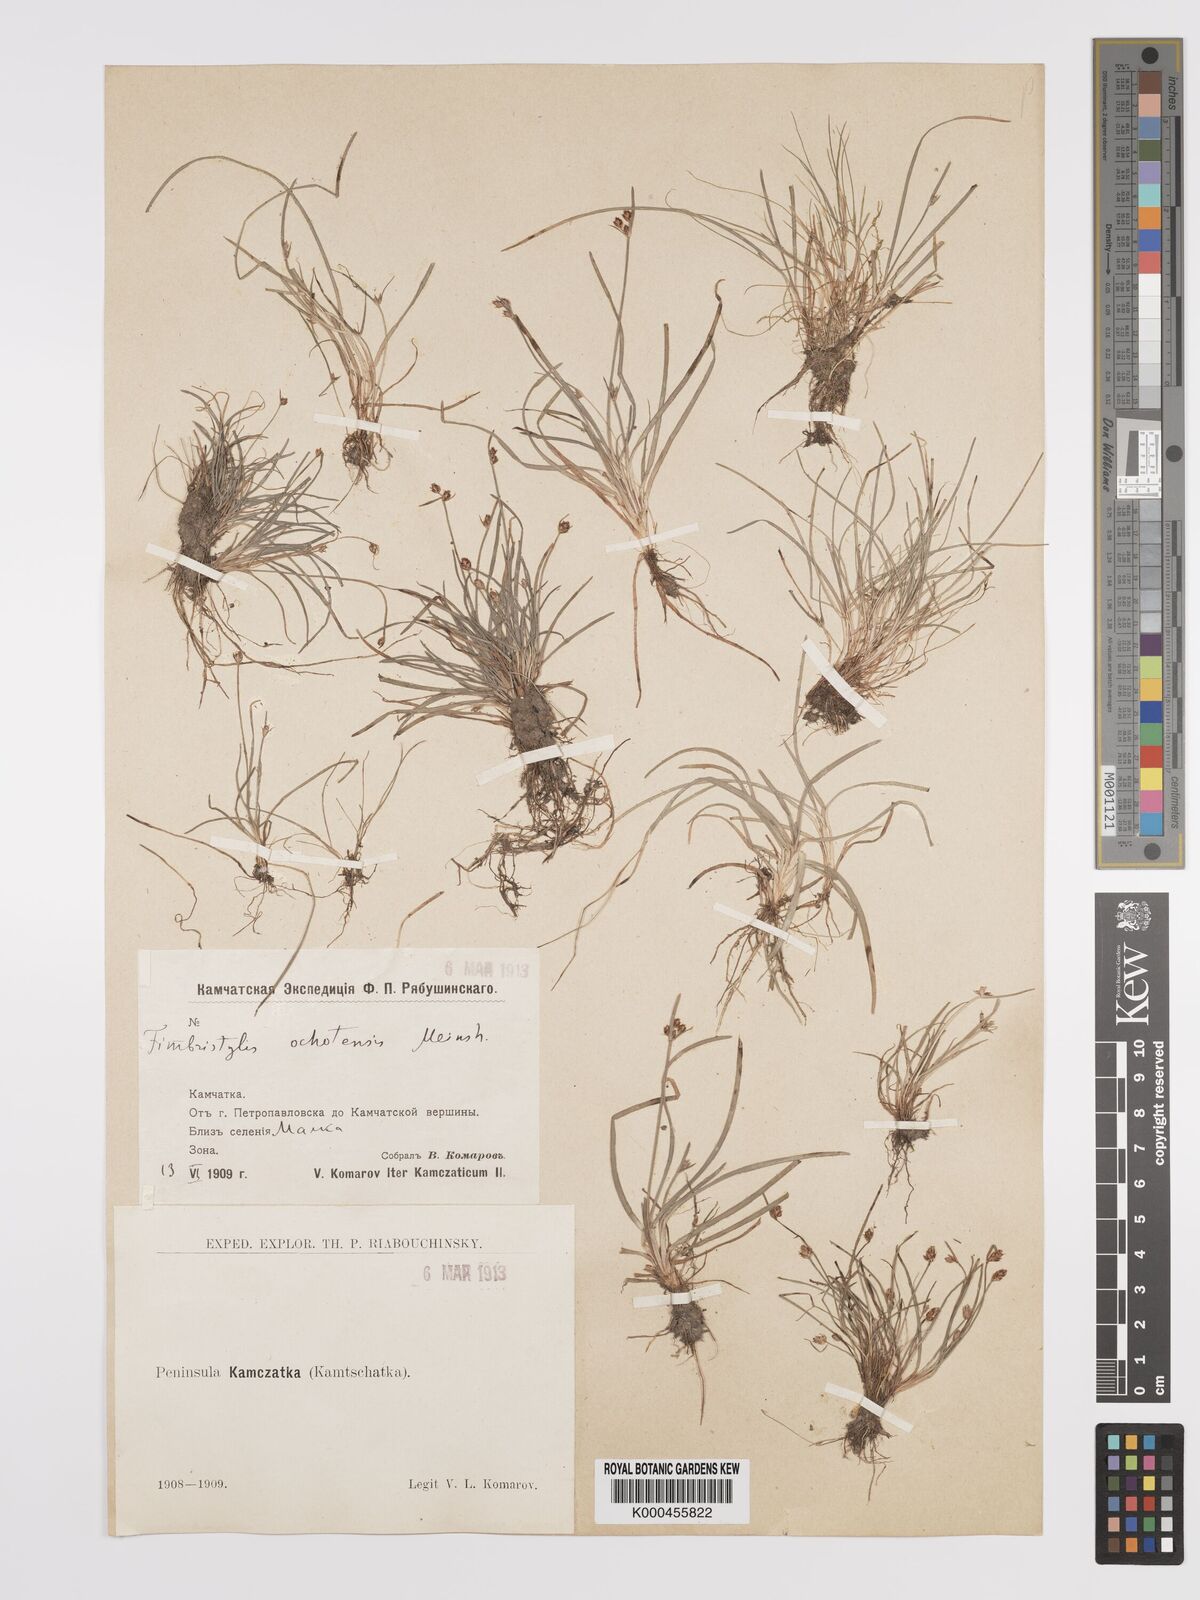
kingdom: Plantae
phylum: Tracheophyta
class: Liliopsida
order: Poales
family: Cyperaceae
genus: Fimbristylis
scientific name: Fimbristylis dichotoma
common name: Forked fimbry
